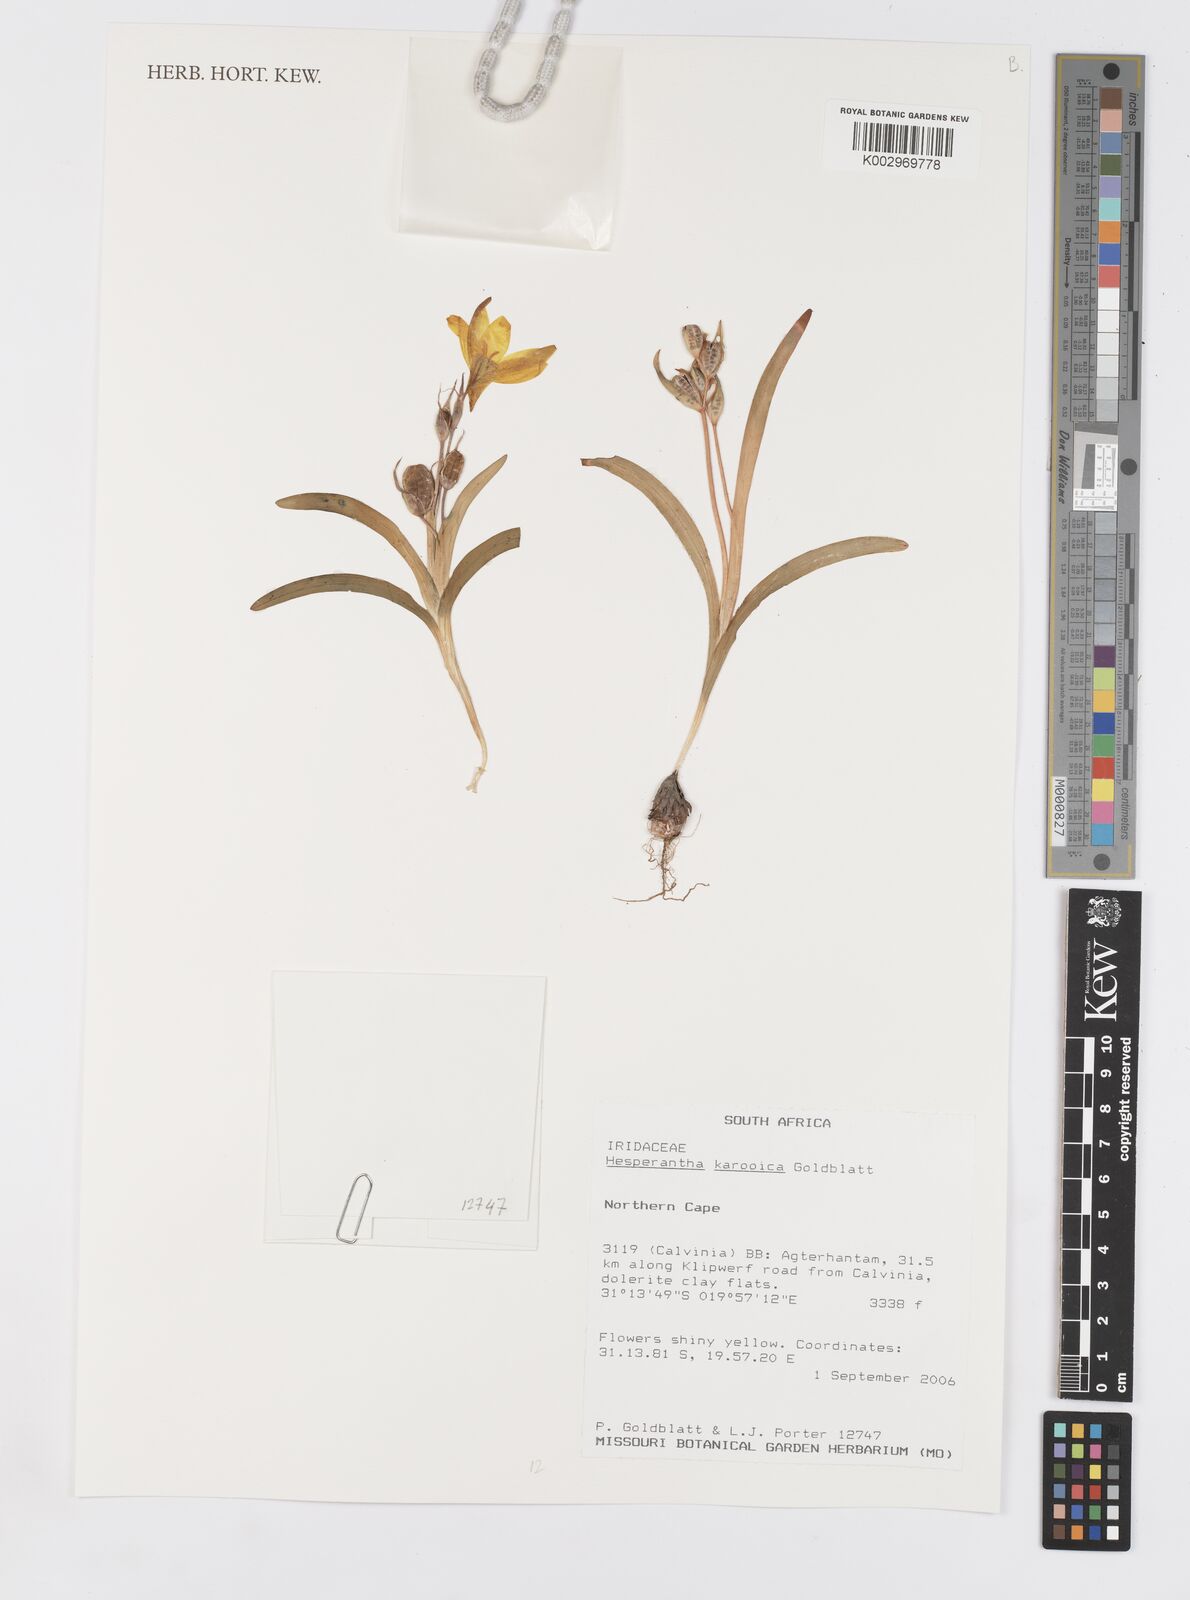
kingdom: Plantae
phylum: Tracheophyta
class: Liliopsida
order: Asparagales
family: Iridaceae
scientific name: Iridaceae
